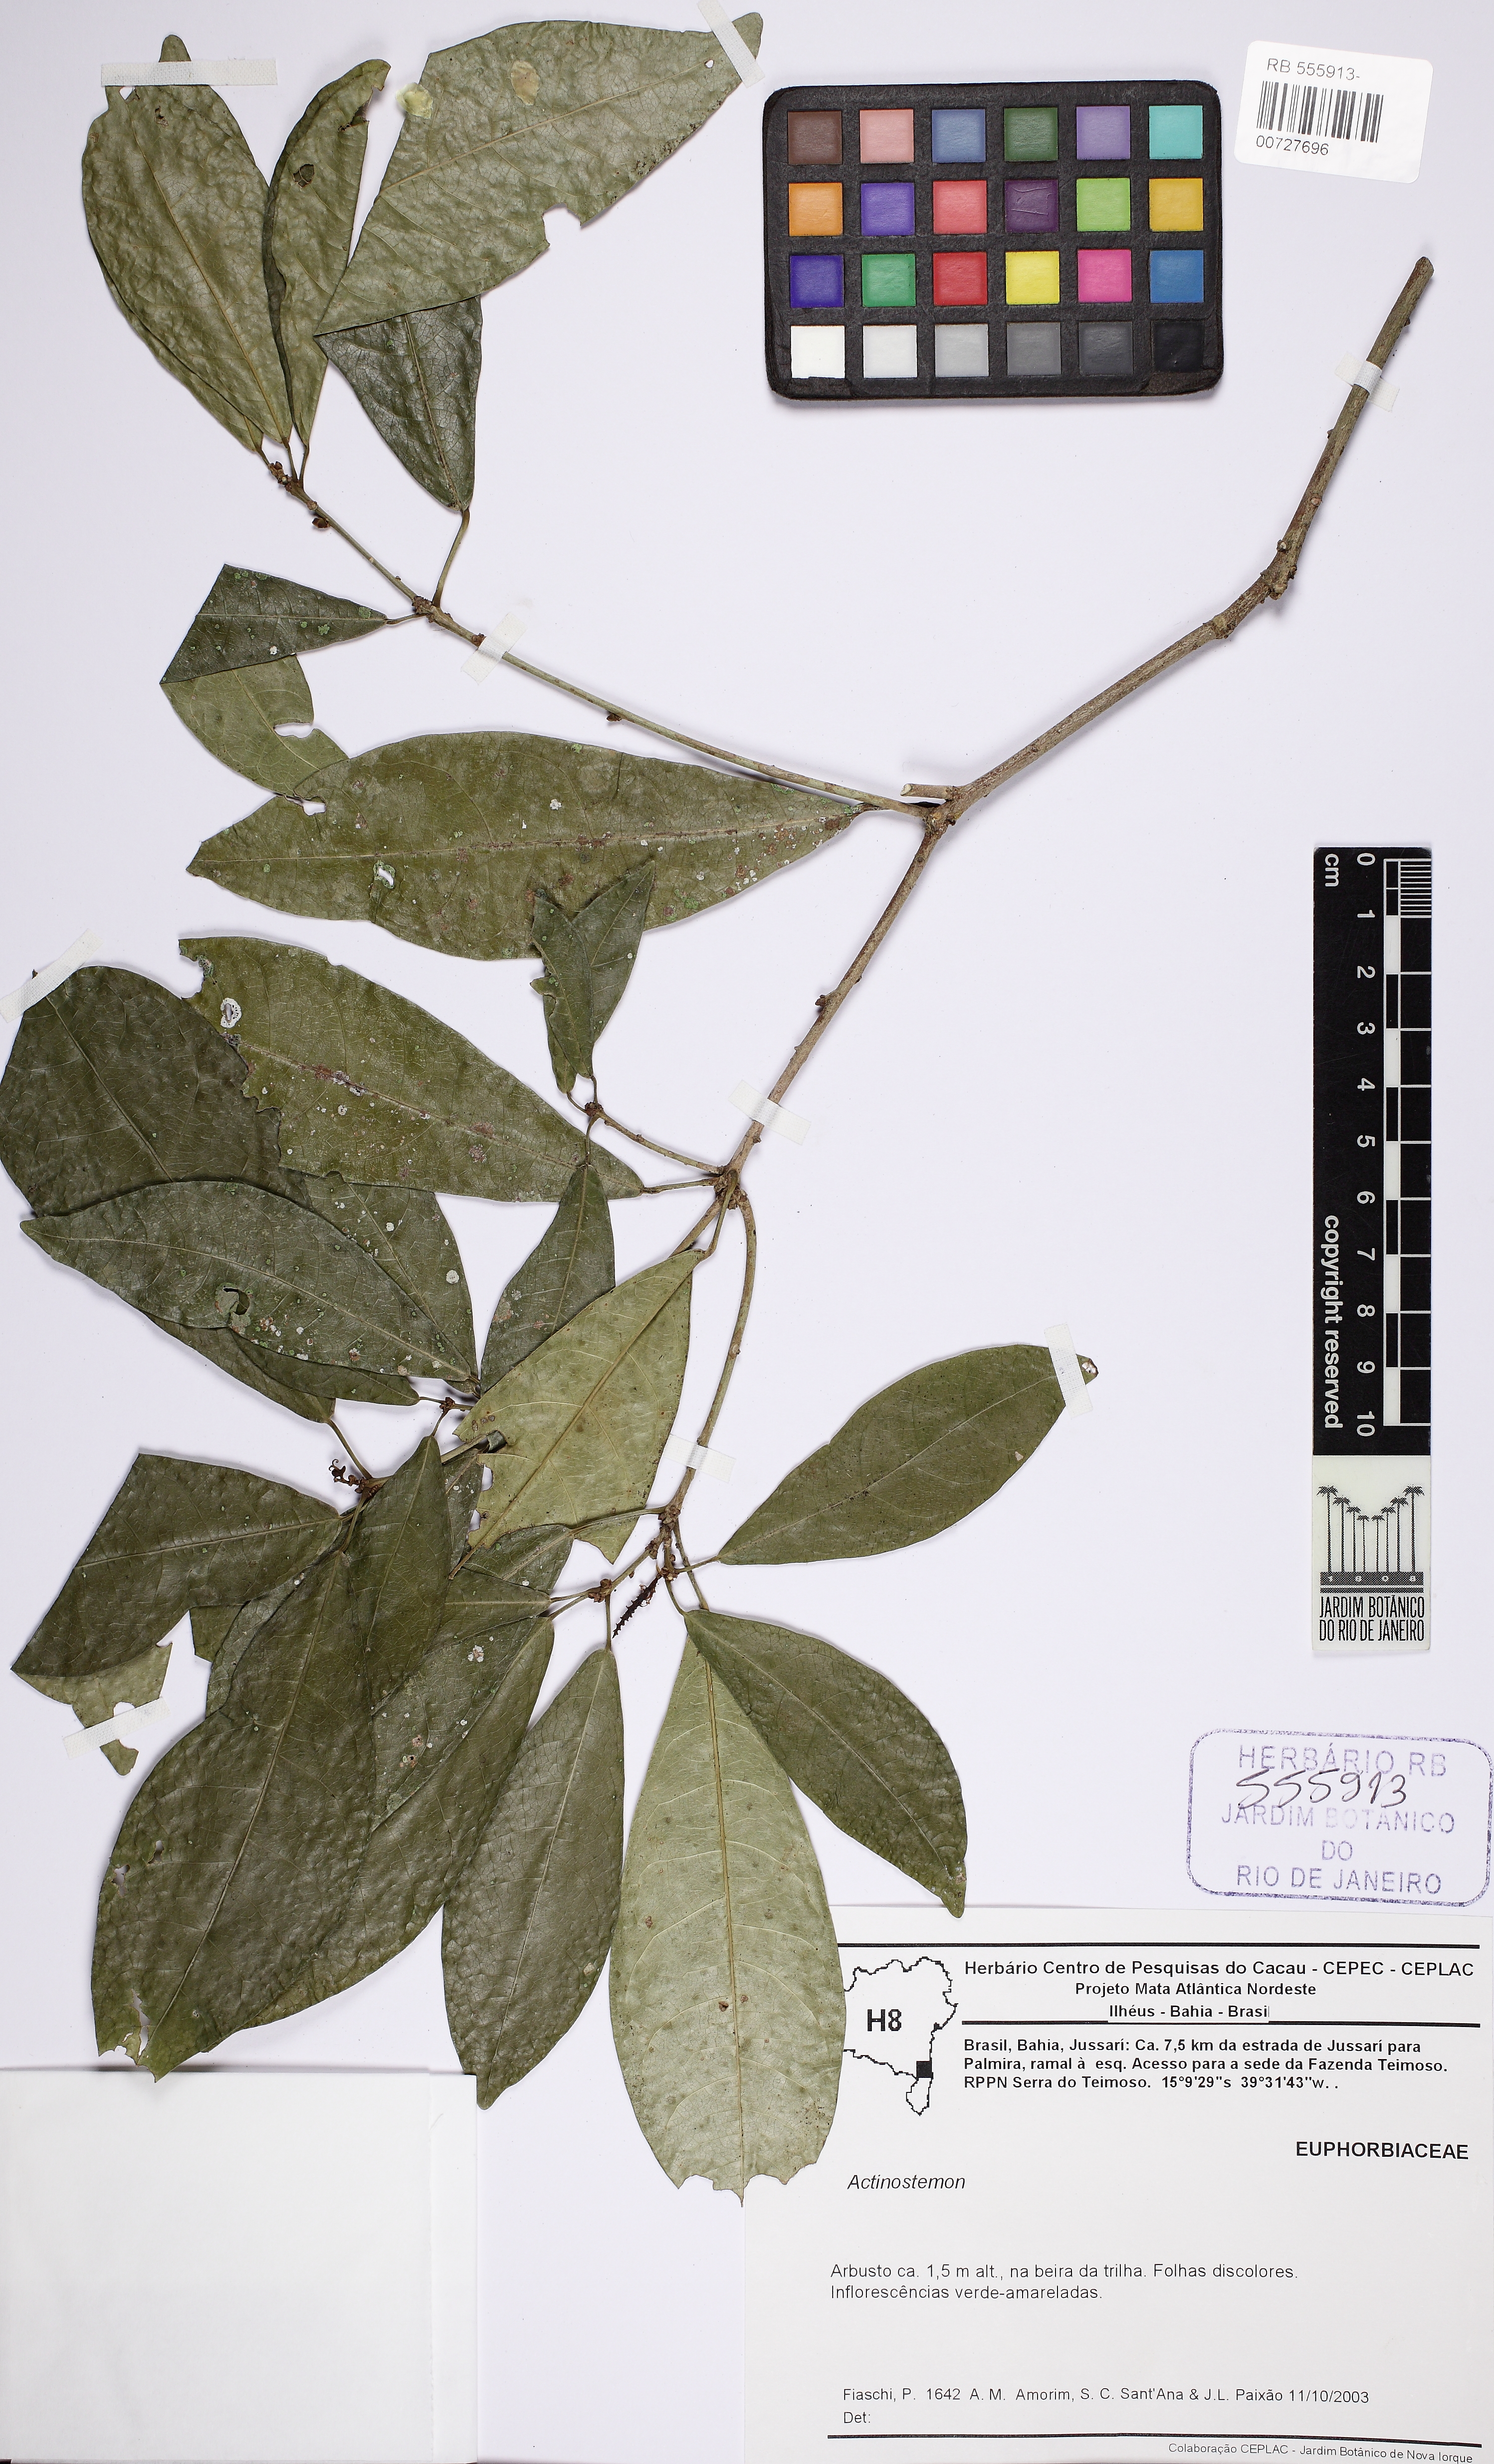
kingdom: Plantae
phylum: Tracheophyta
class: Magnoliopsida
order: Malpighiales
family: Euphorbiaceae
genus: Actinostemon
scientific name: Actinostemon
